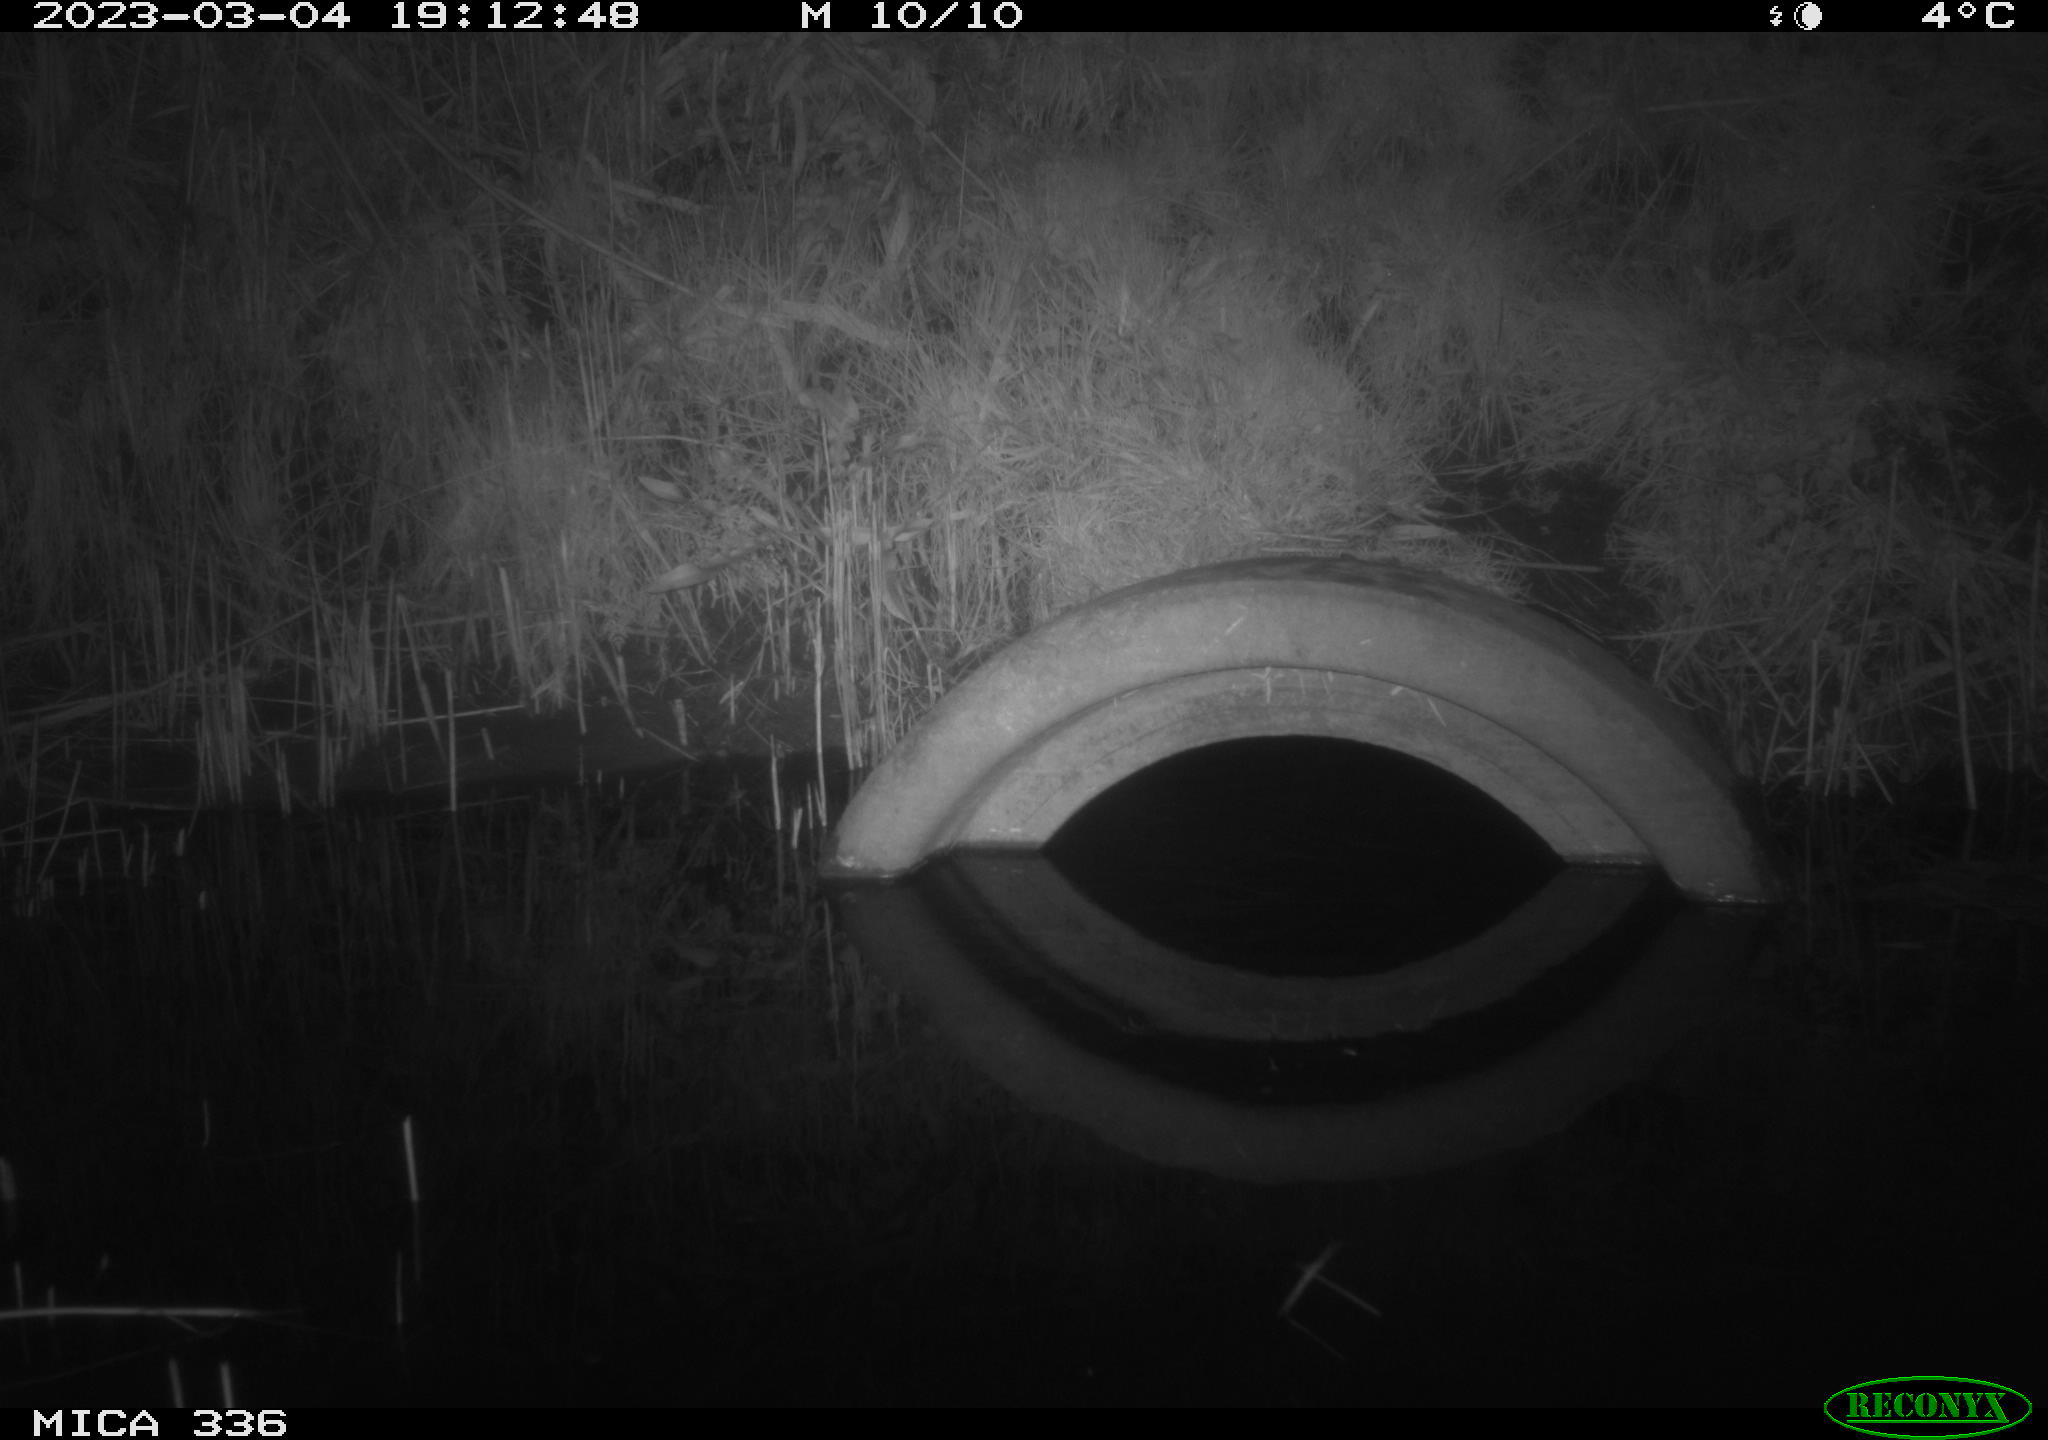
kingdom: Animalia
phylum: Chordata
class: Aves
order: Pelecaniformes
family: Ardeidae
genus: Ardea
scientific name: Ardea cinerea
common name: Grey heron
